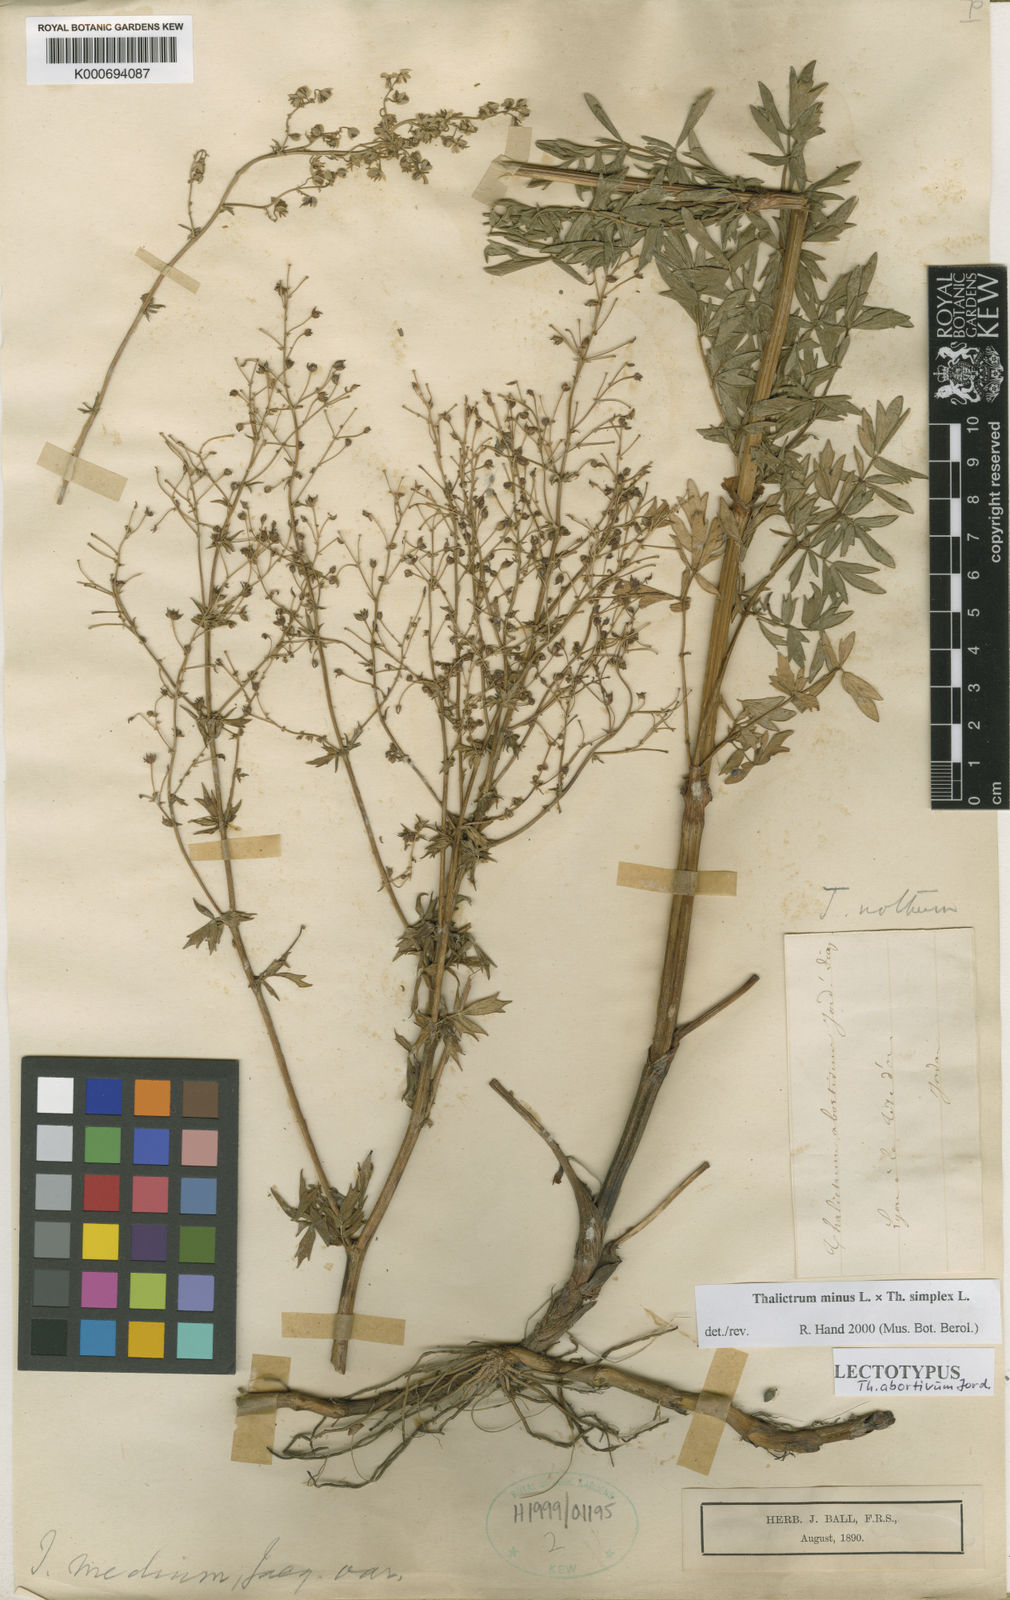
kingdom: Plantae
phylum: Tracheophyta
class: Magnoliopsida
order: Ranunculales
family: Ranunculaceae
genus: Thalictrum
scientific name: Thalictrum minus
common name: Lesser meadow-rue
